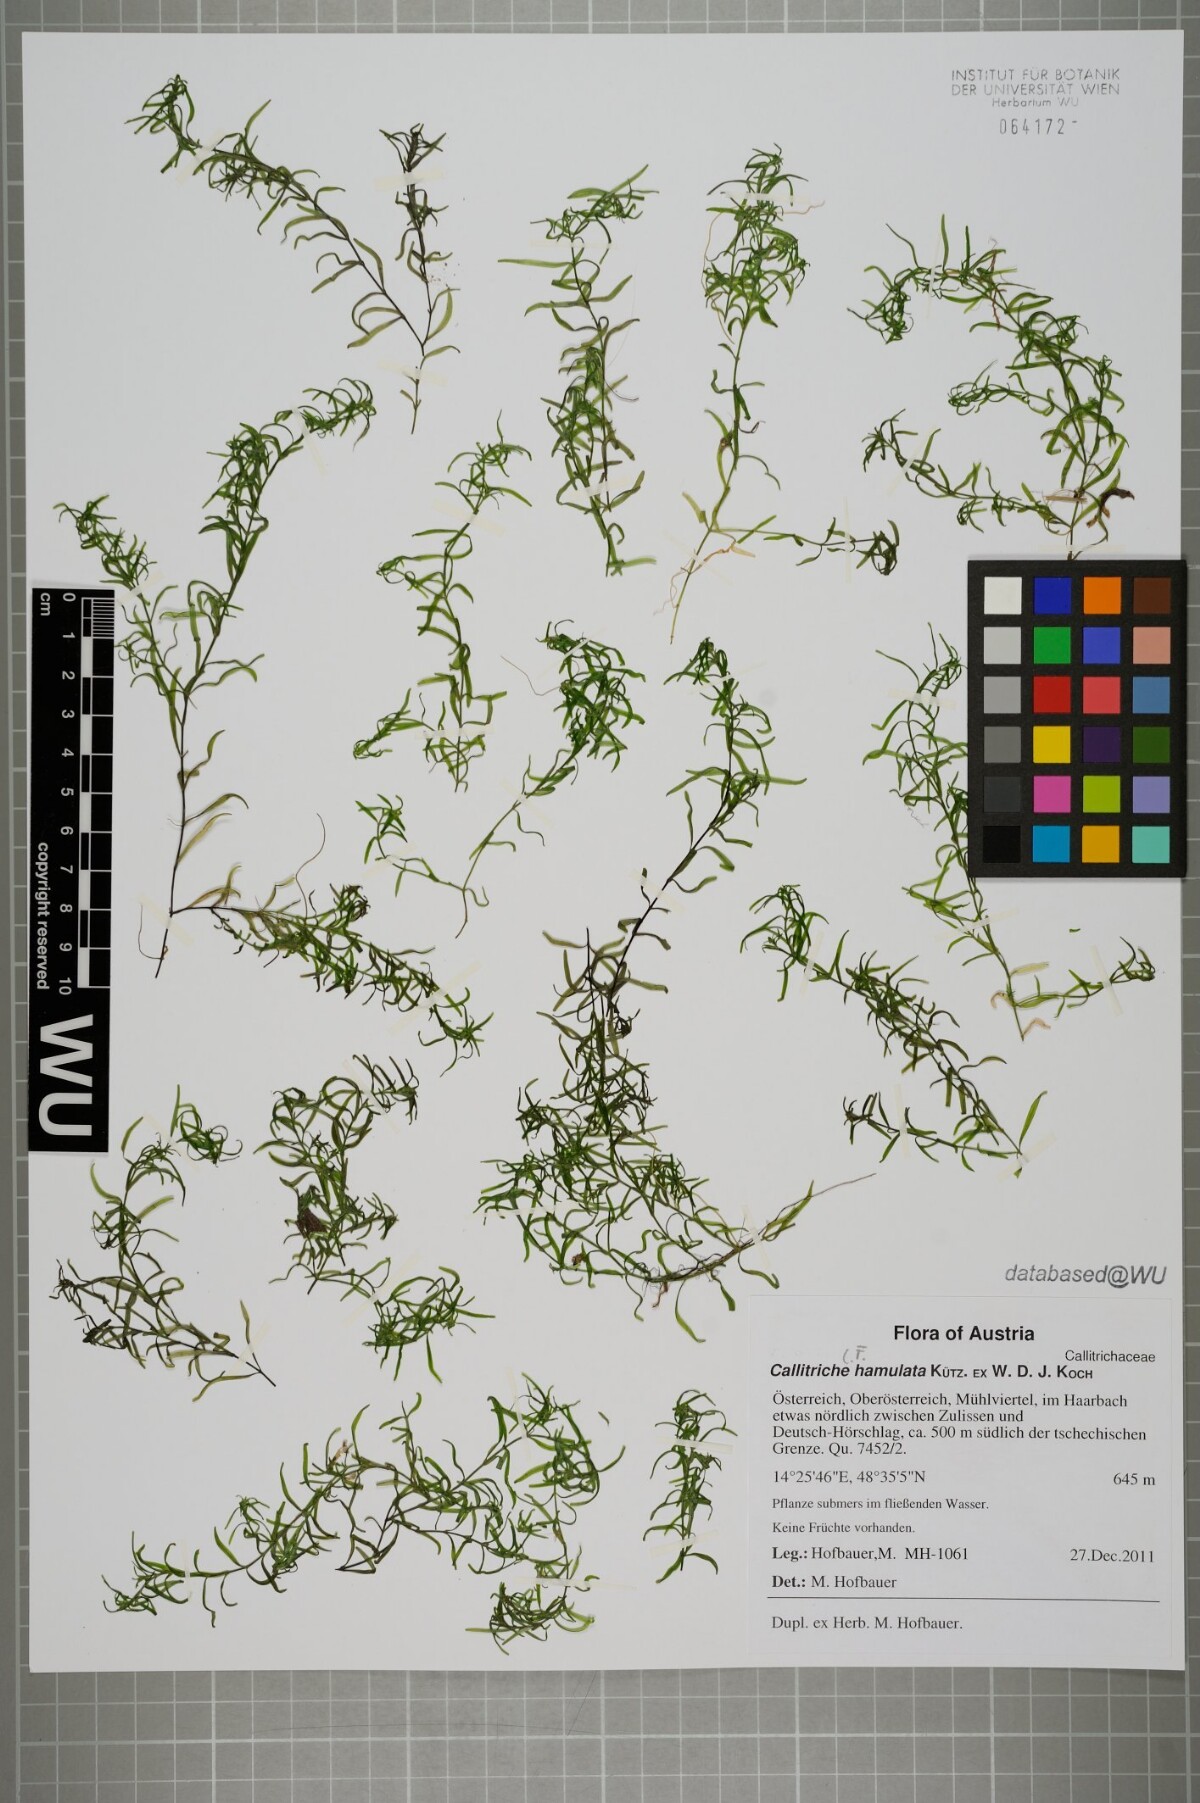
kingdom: Plantae
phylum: Tracheophyta
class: Magnoliopsida
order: Lamiales
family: Plantaginaceae
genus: Callitriche
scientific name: Callitriche palustris
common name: Spring water-starwort
